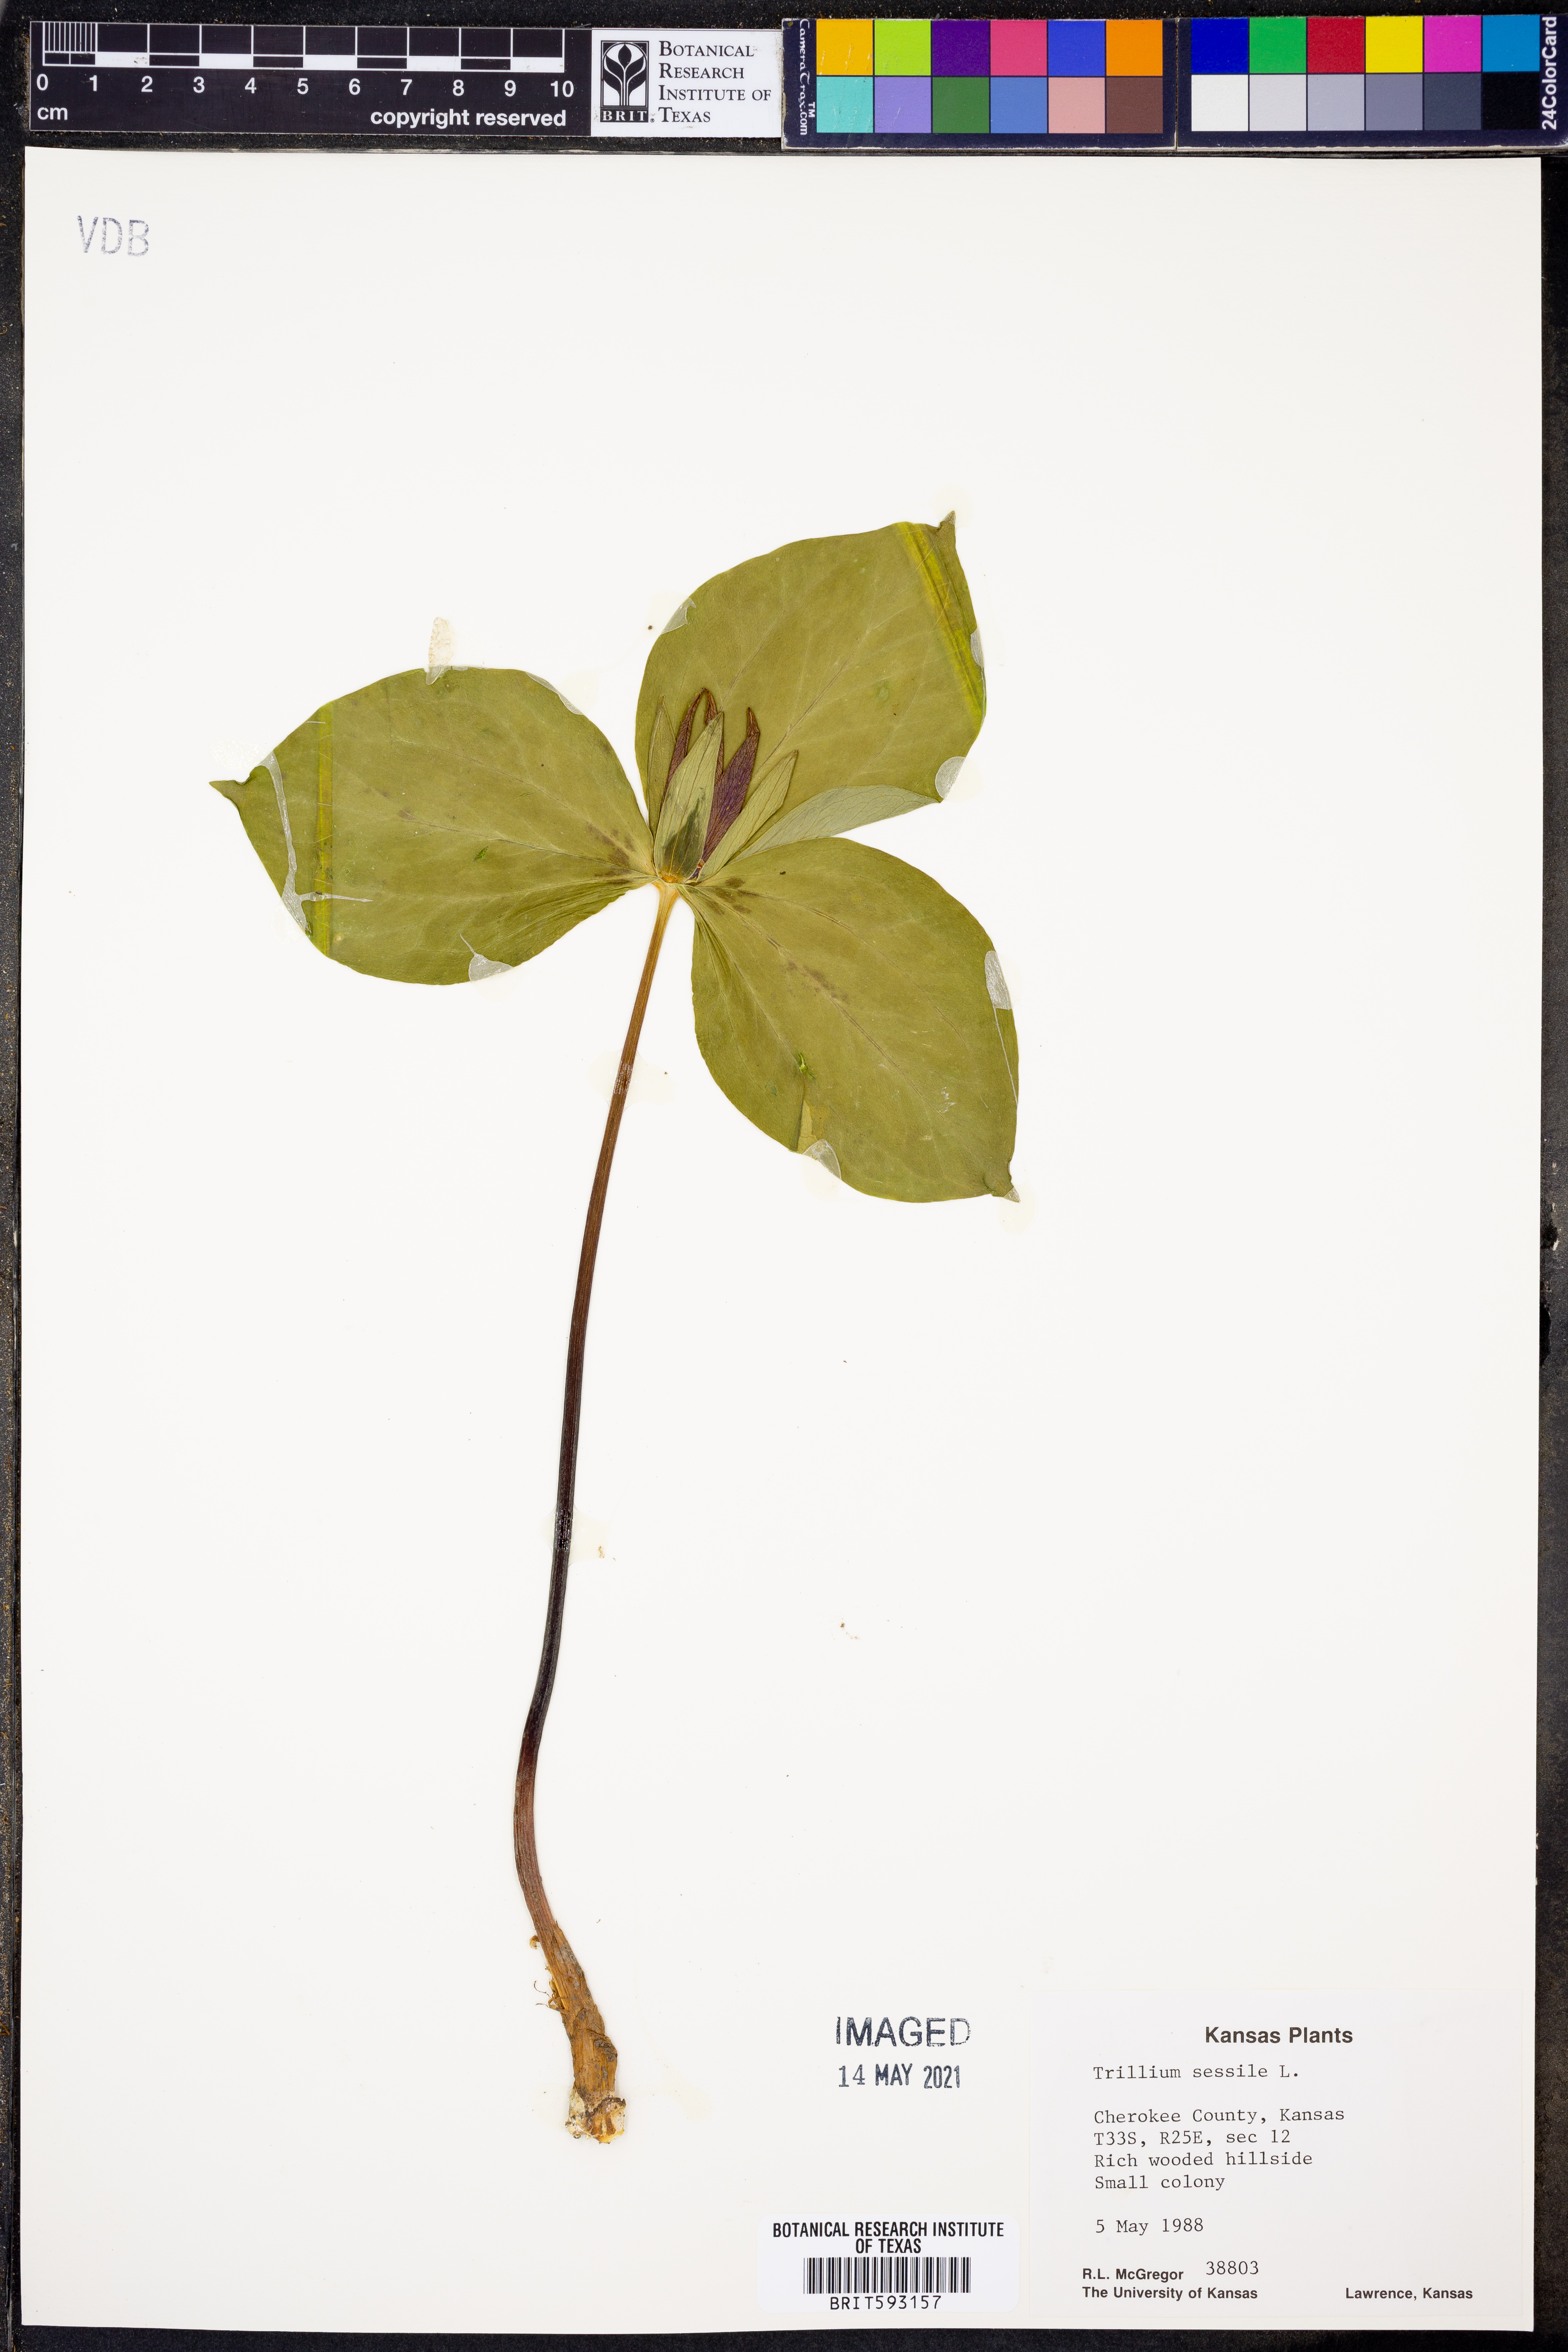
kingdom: Plantae
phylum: Tracheophyta
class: Liliopsida
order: Liliales
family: Melanthiaceae
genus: Trillium
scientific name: Trillium sessile
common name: Sessile trillium
